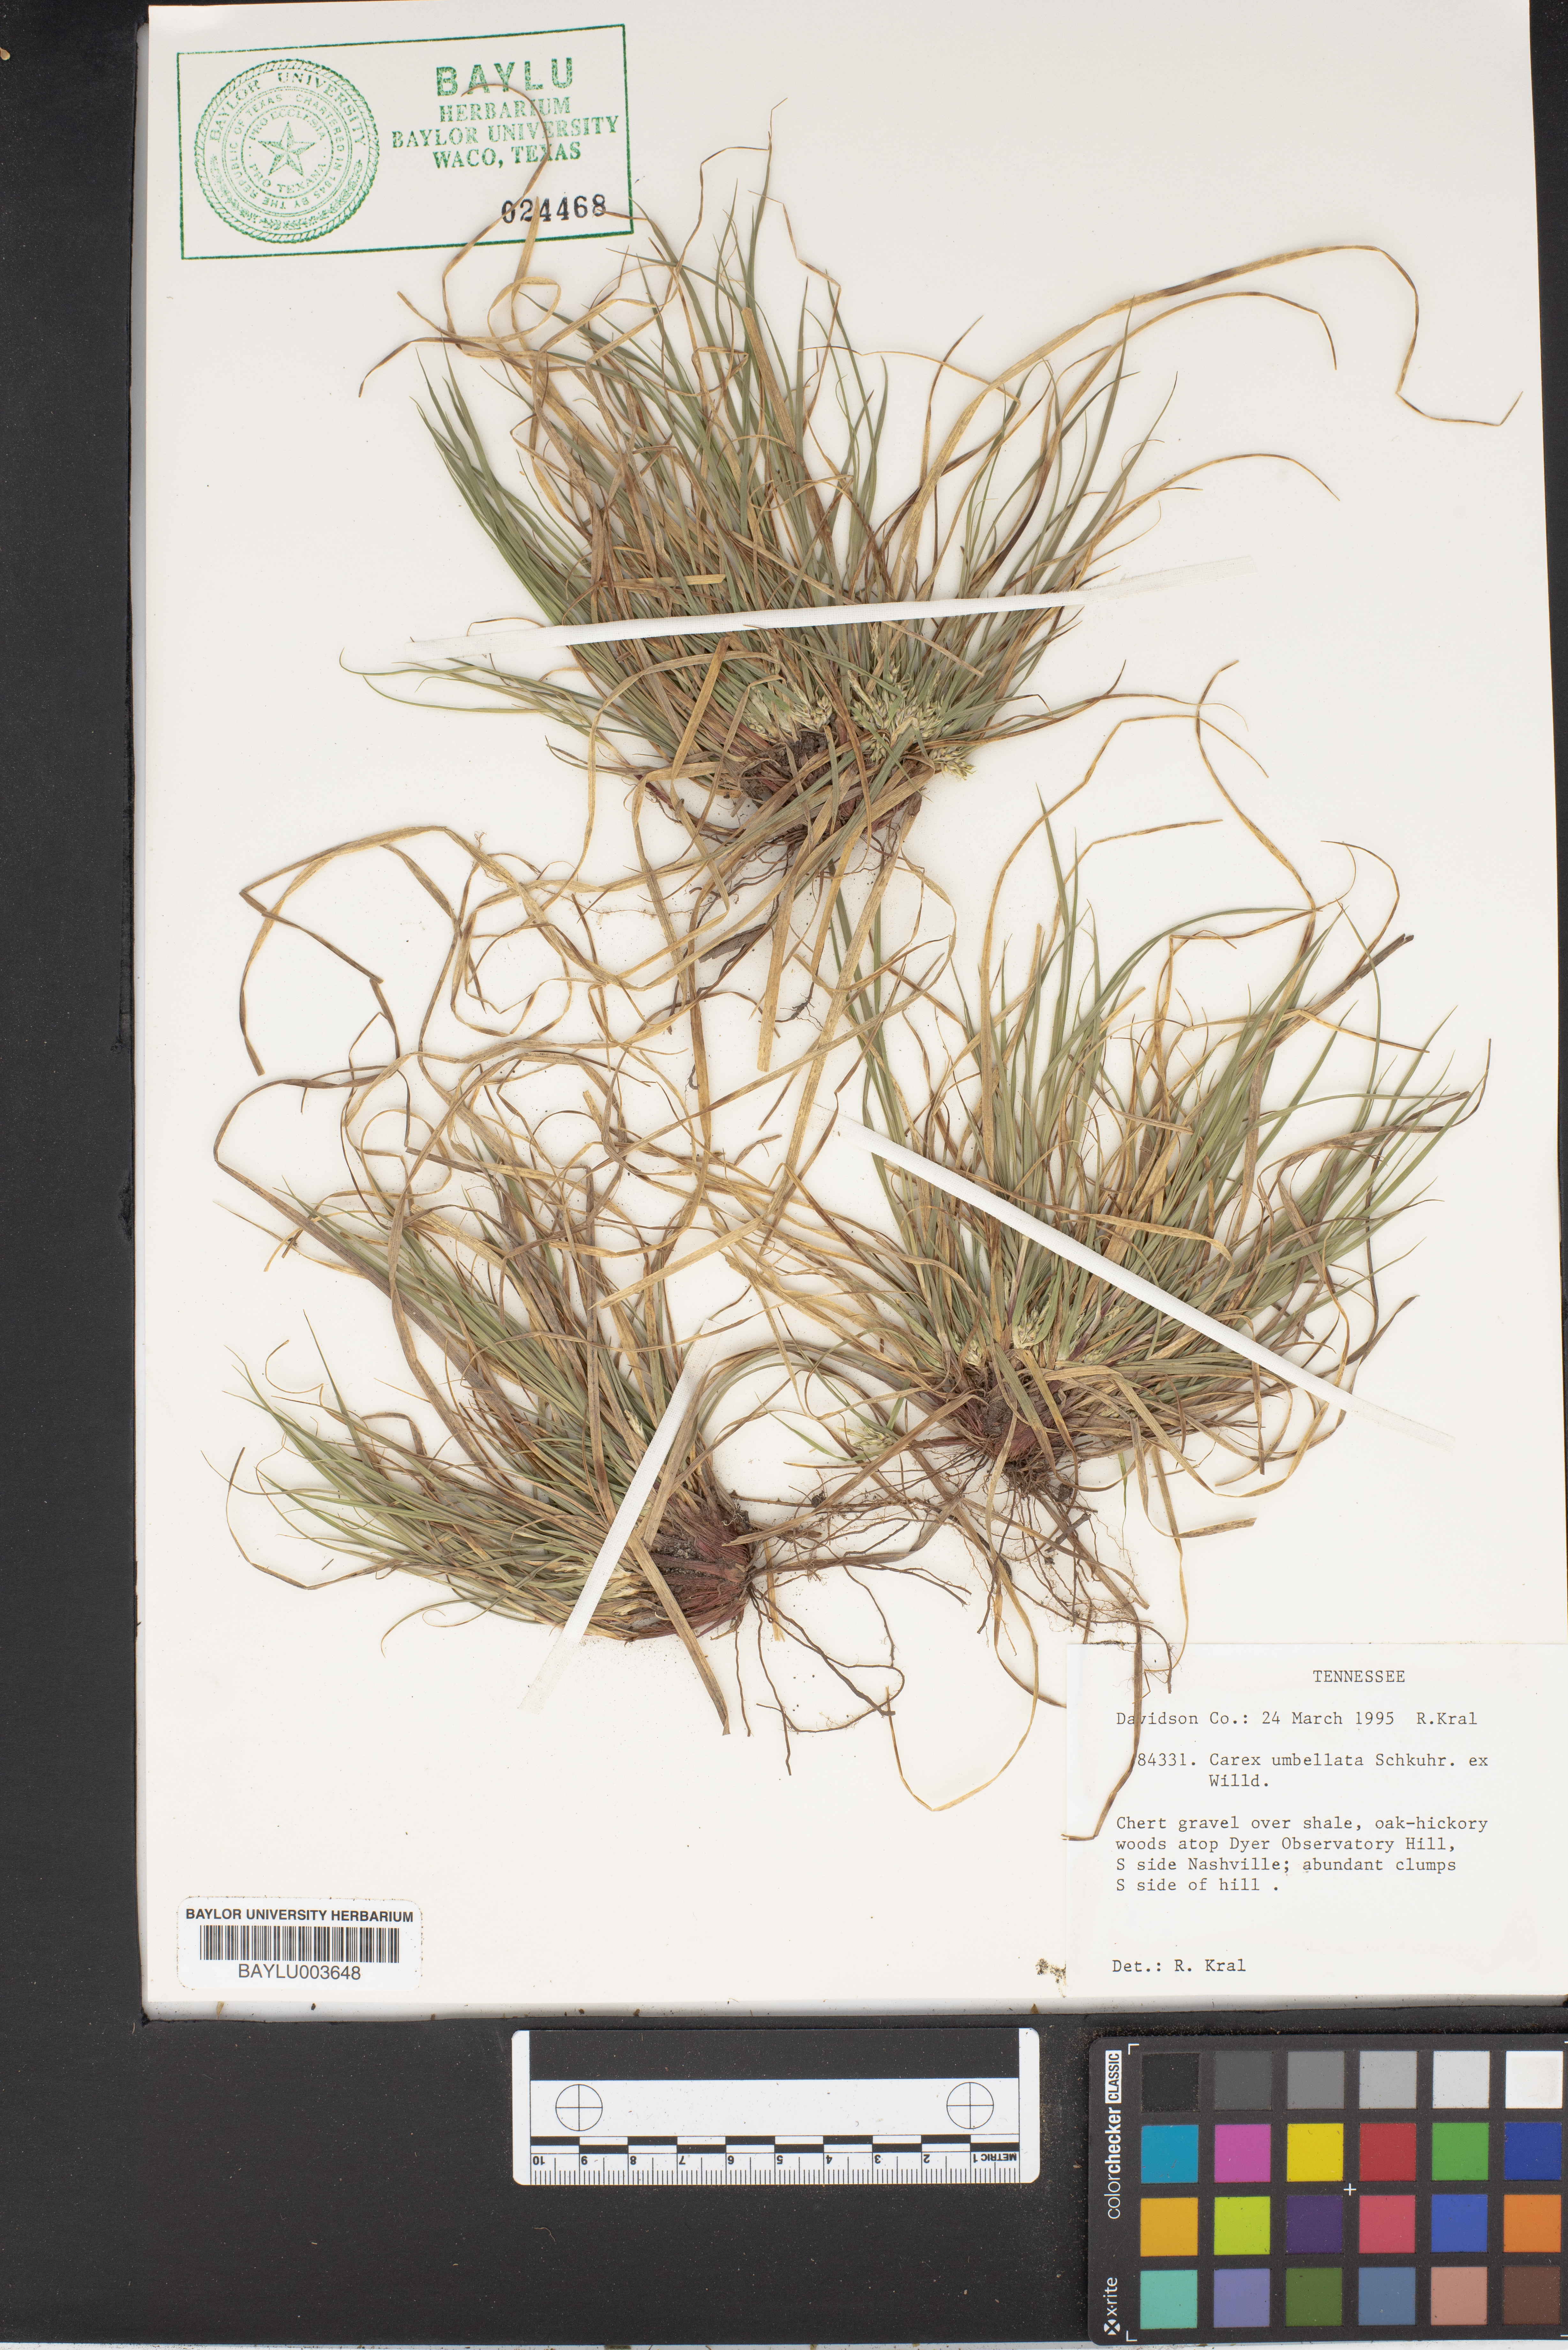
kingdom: Plantae
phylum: Tracheophyta
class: Liliopsida
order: Poales
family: Cyperaceae
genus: Carex
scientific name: Carex umbellata
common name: Early oak sedge
